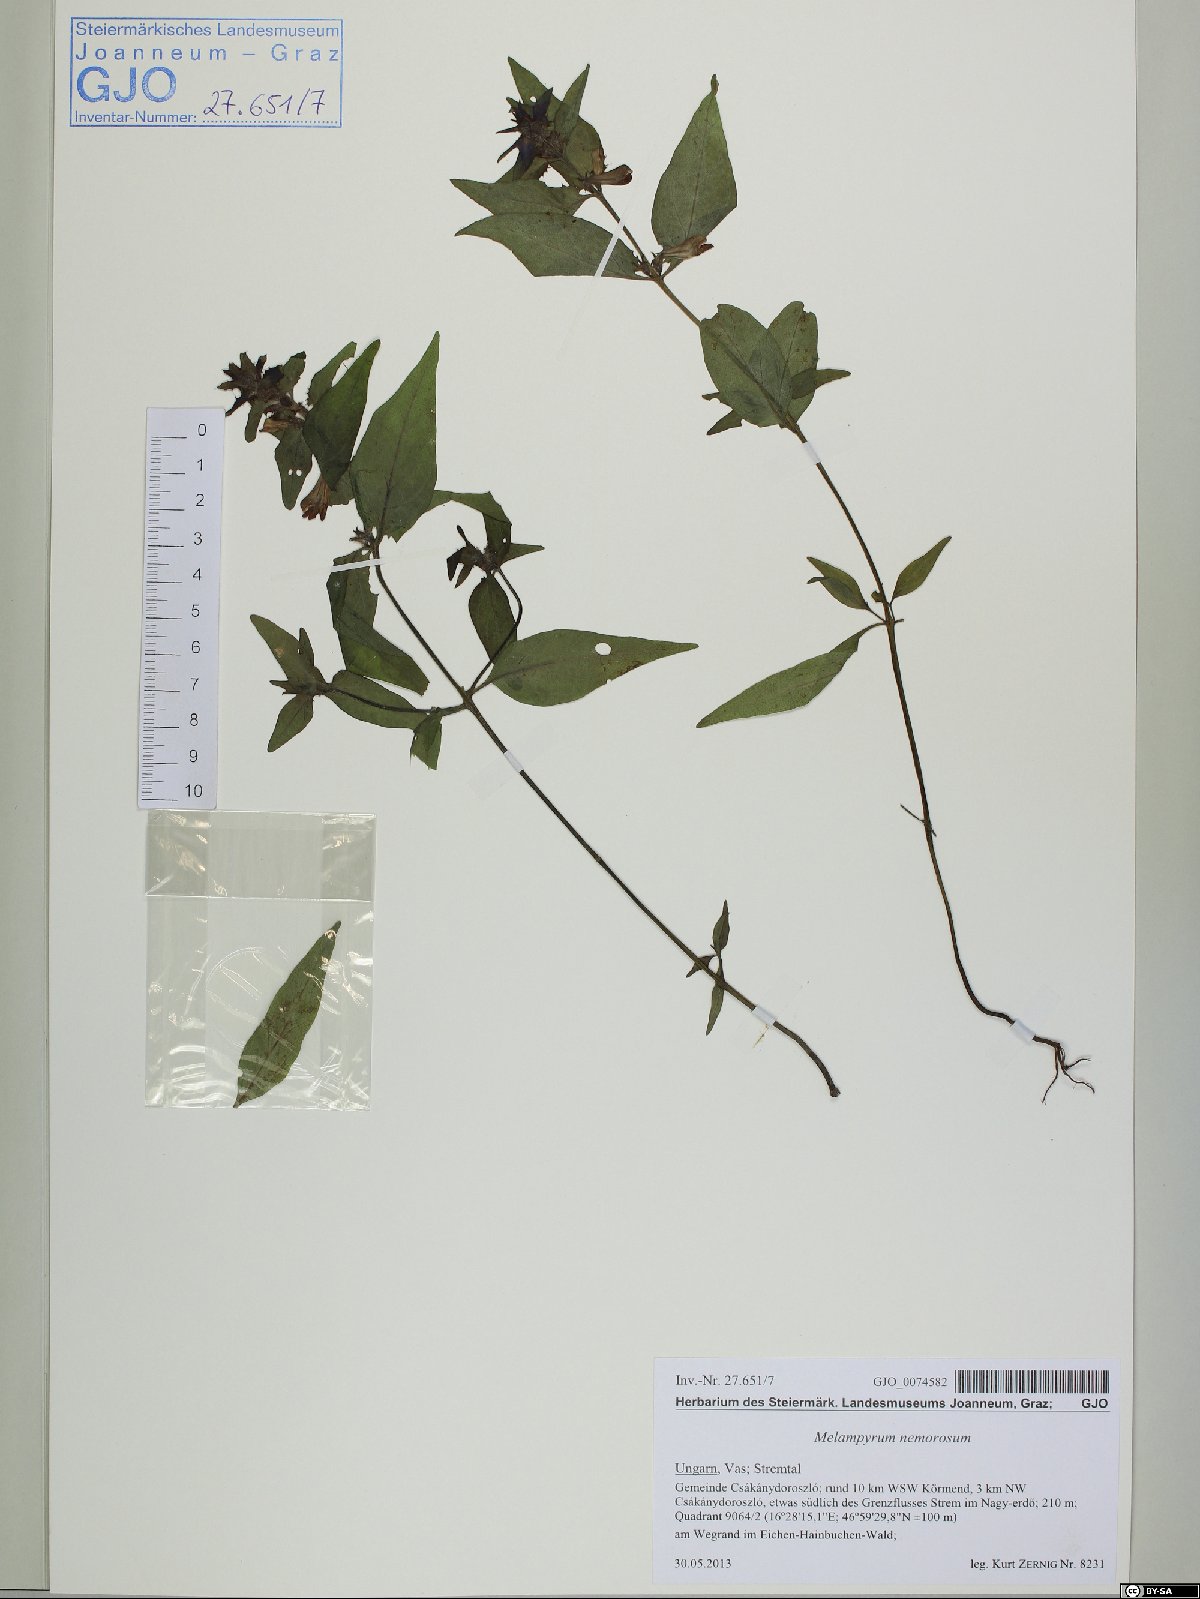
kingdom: Plantae
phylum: Tracheophyta
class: Magnoliopsida
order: Lamiales
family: Orobanchaceae
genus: Melampyrum
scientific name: Melampyrum nemorosum
